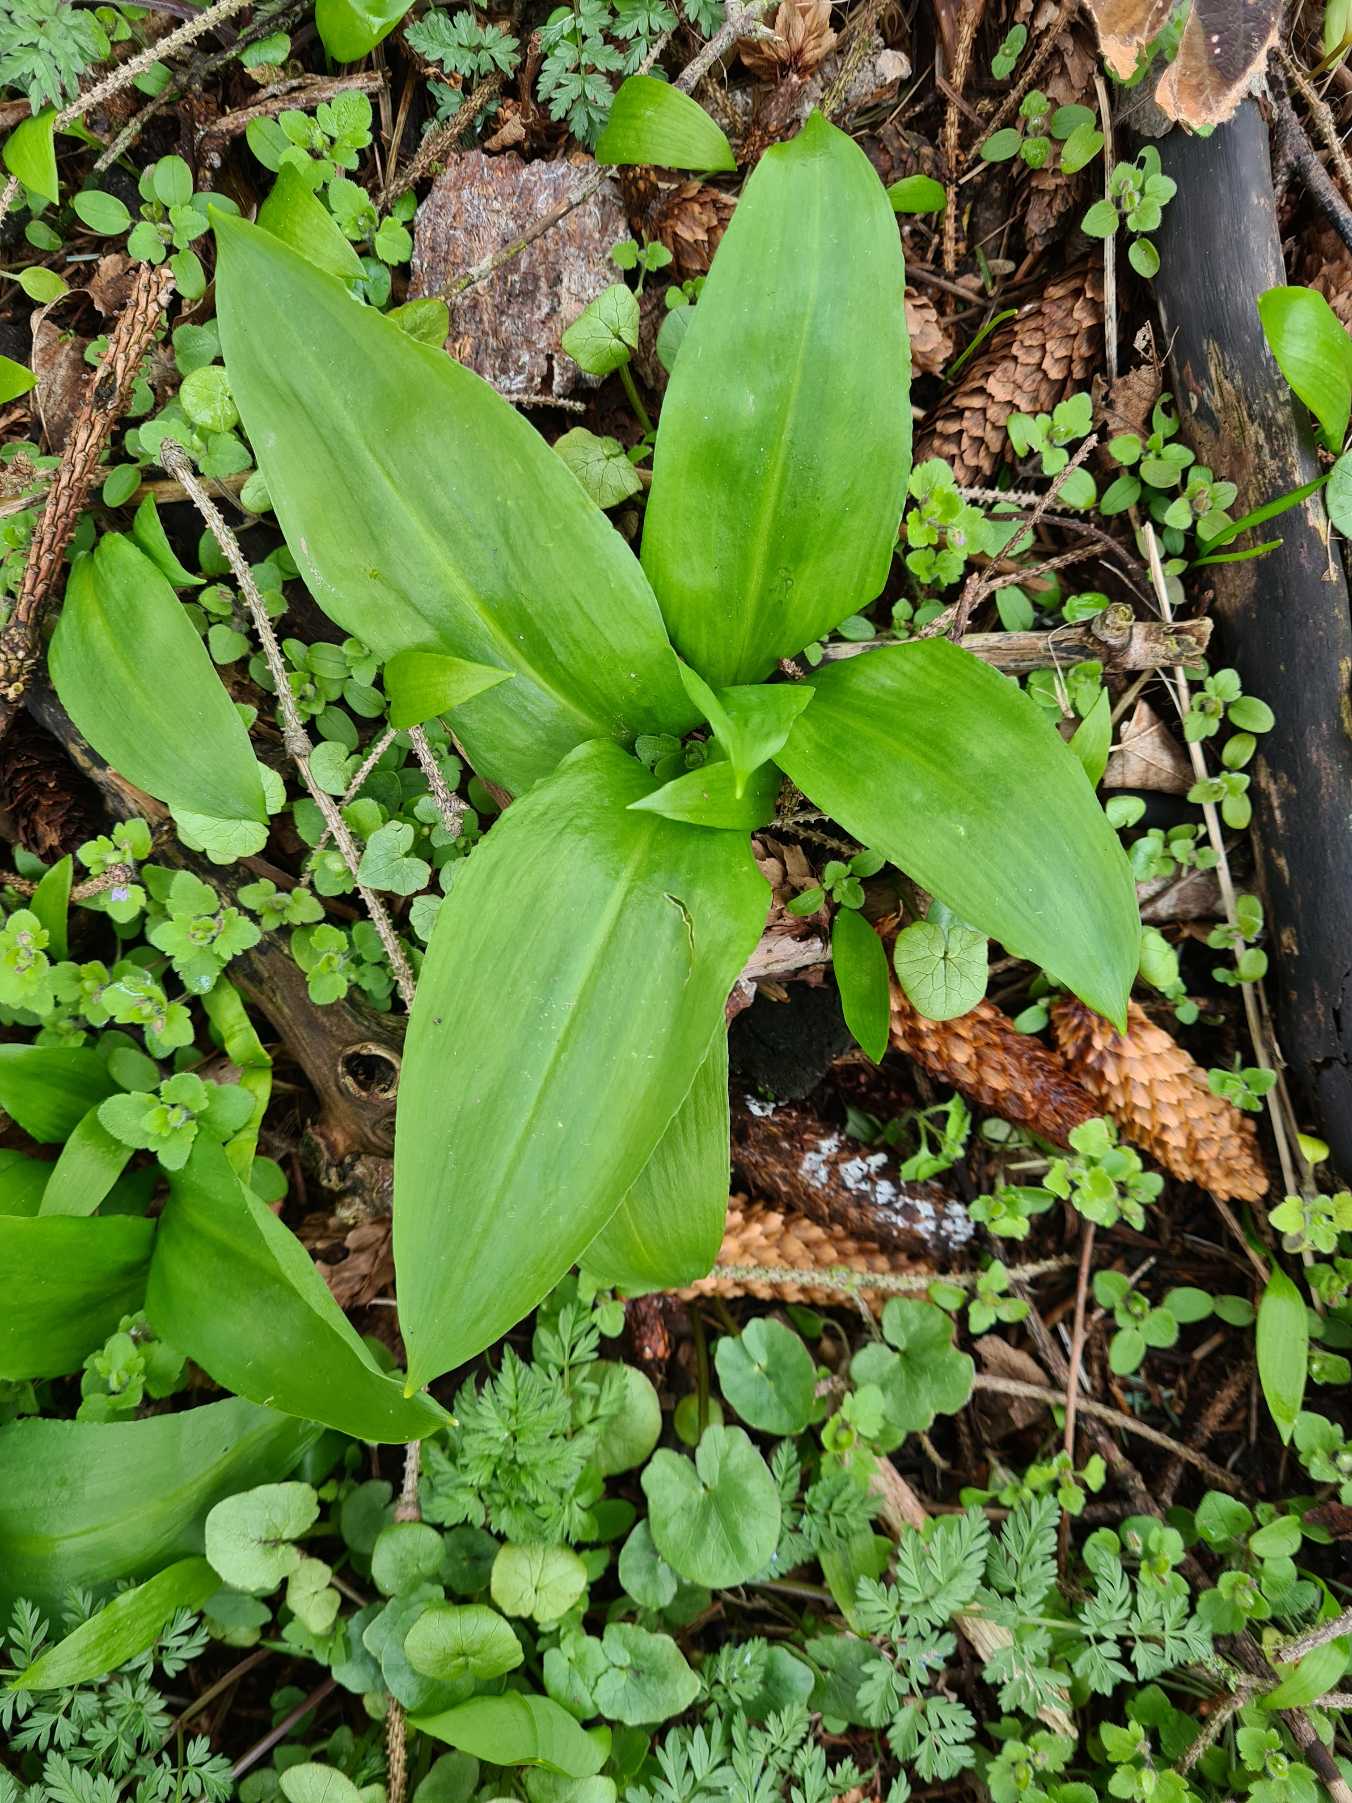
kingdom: Plantae
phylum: Tracheophyta
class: Liliopsida
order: Asparagales
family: Amaryllidaceae
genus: Allium
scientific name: Allium ursinum
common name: Rams-løg
